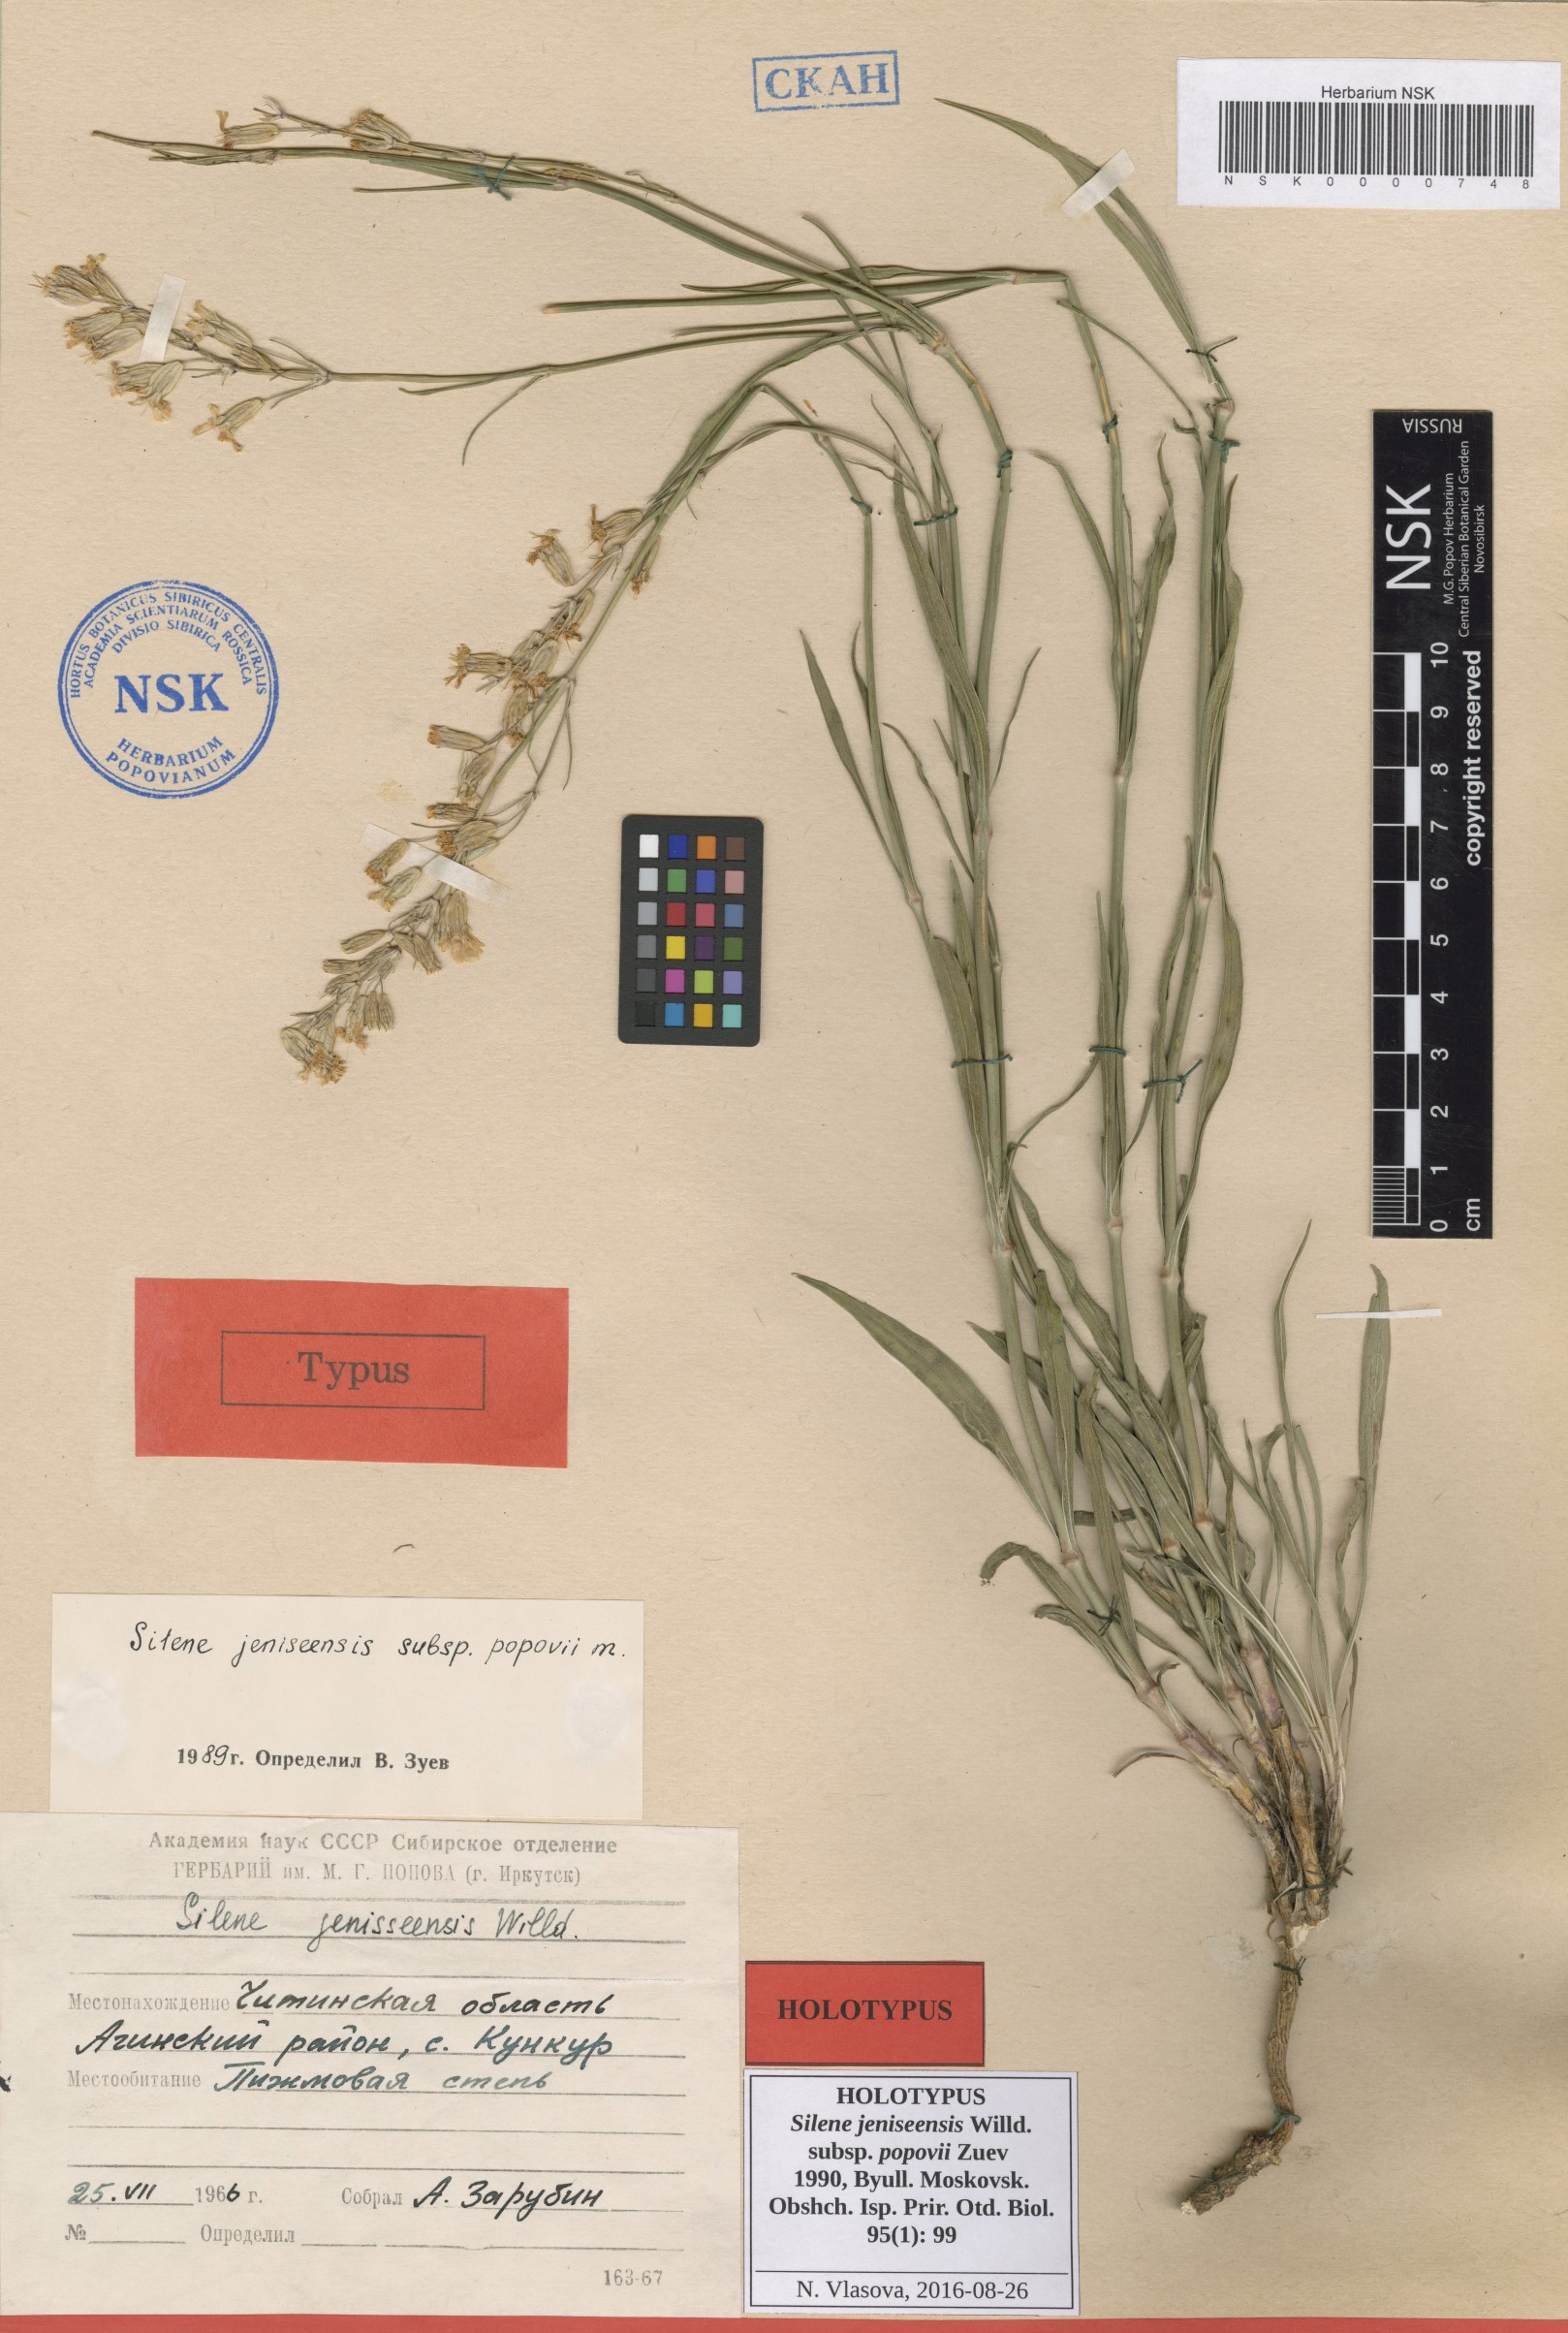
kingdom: Plantae
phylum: Tracheophyta
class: Magnoliopsida
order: Caryophyllales
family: Caryophyllaceae
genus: Silene
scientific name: Silene jeniseensis
